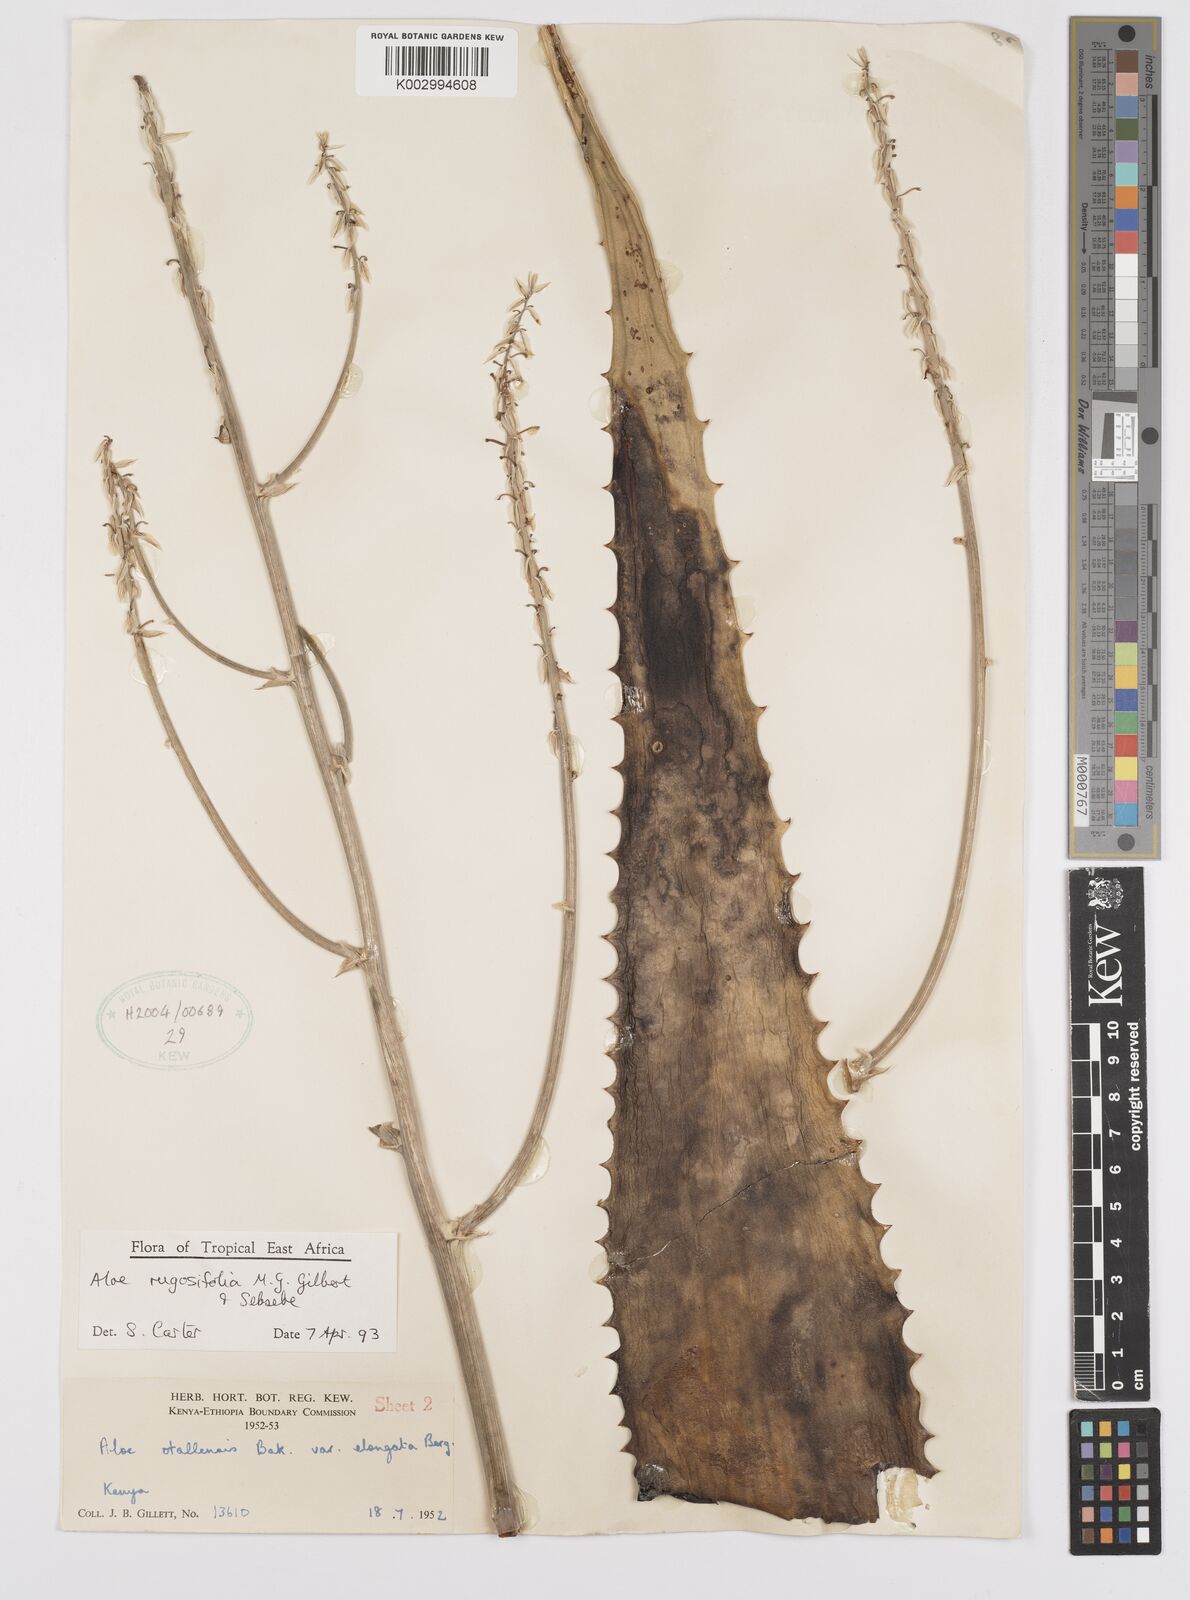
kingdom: Plantae
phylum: Tracheophyta
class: Liliopsida
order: Asparagales
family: Asphodelaceae
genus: Aloe
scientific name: Aloe rugosifolia
